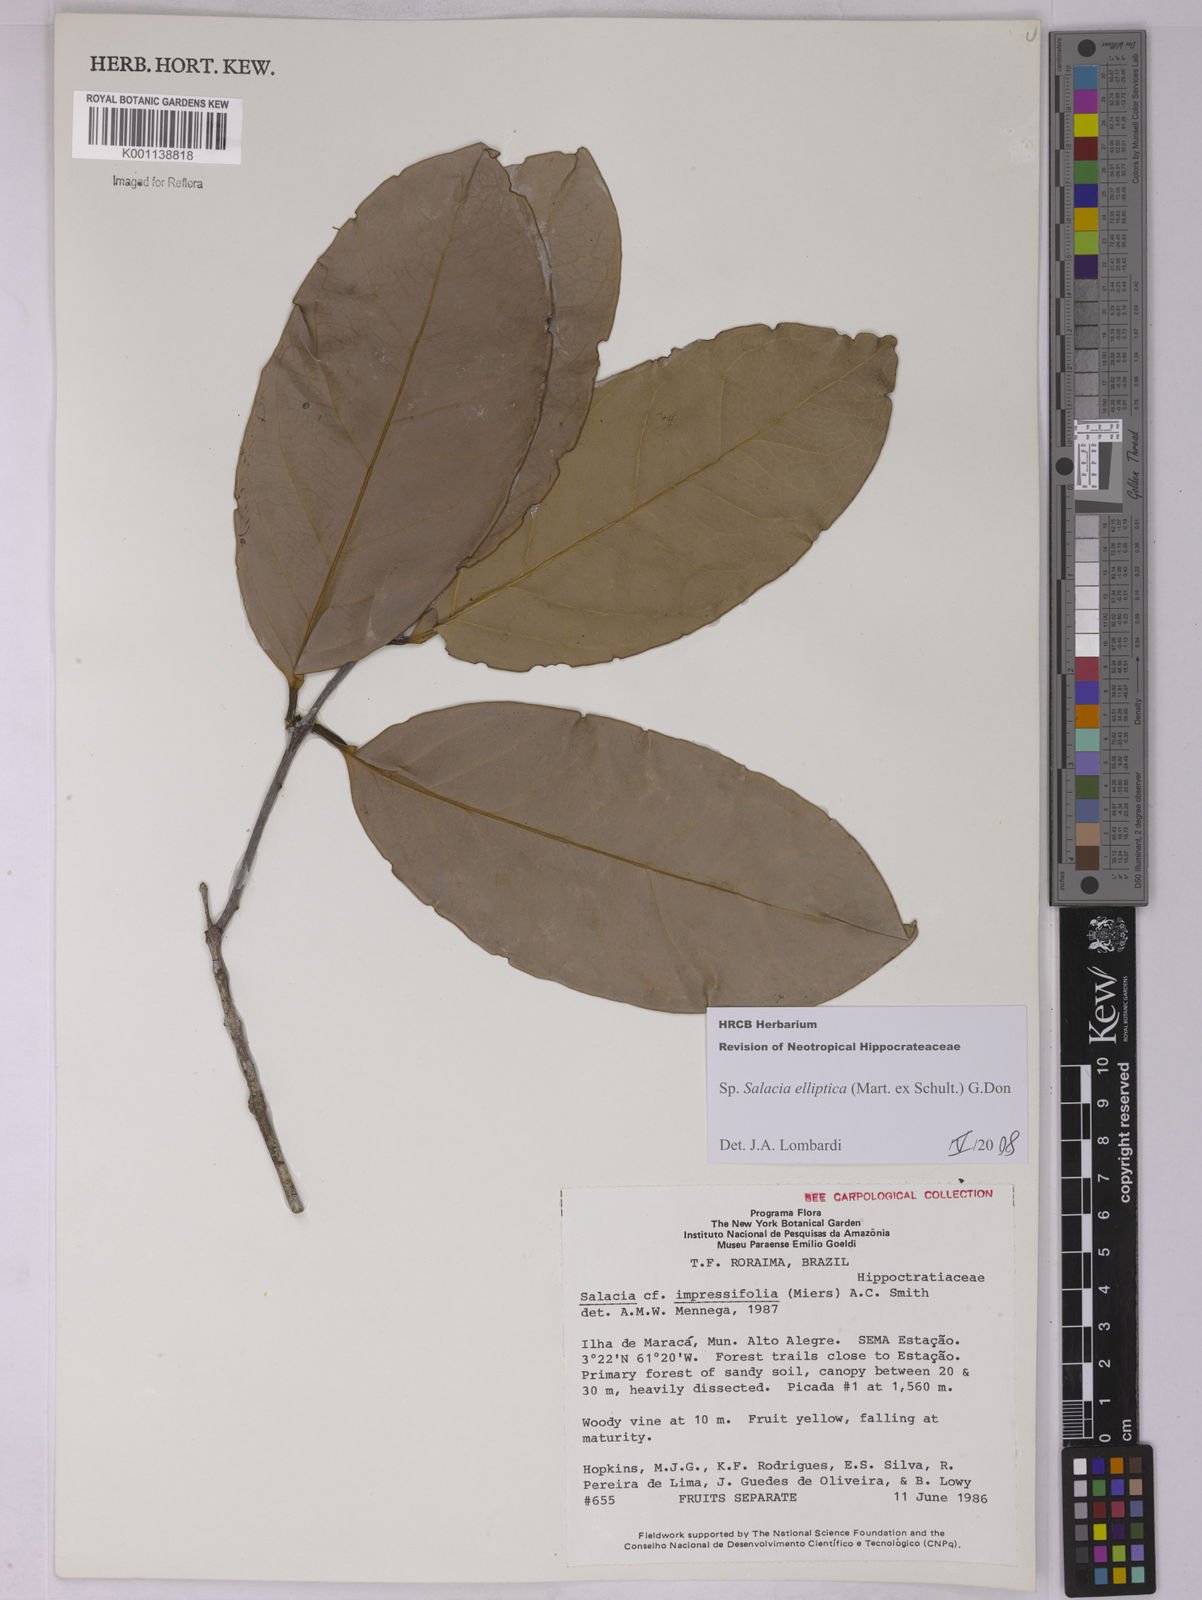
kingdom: Plantae
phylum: Tracheophyta
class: Magnoliopsida
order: Celastrales
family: Celastraceae
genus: Salacia
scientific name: Salacia elliptica
